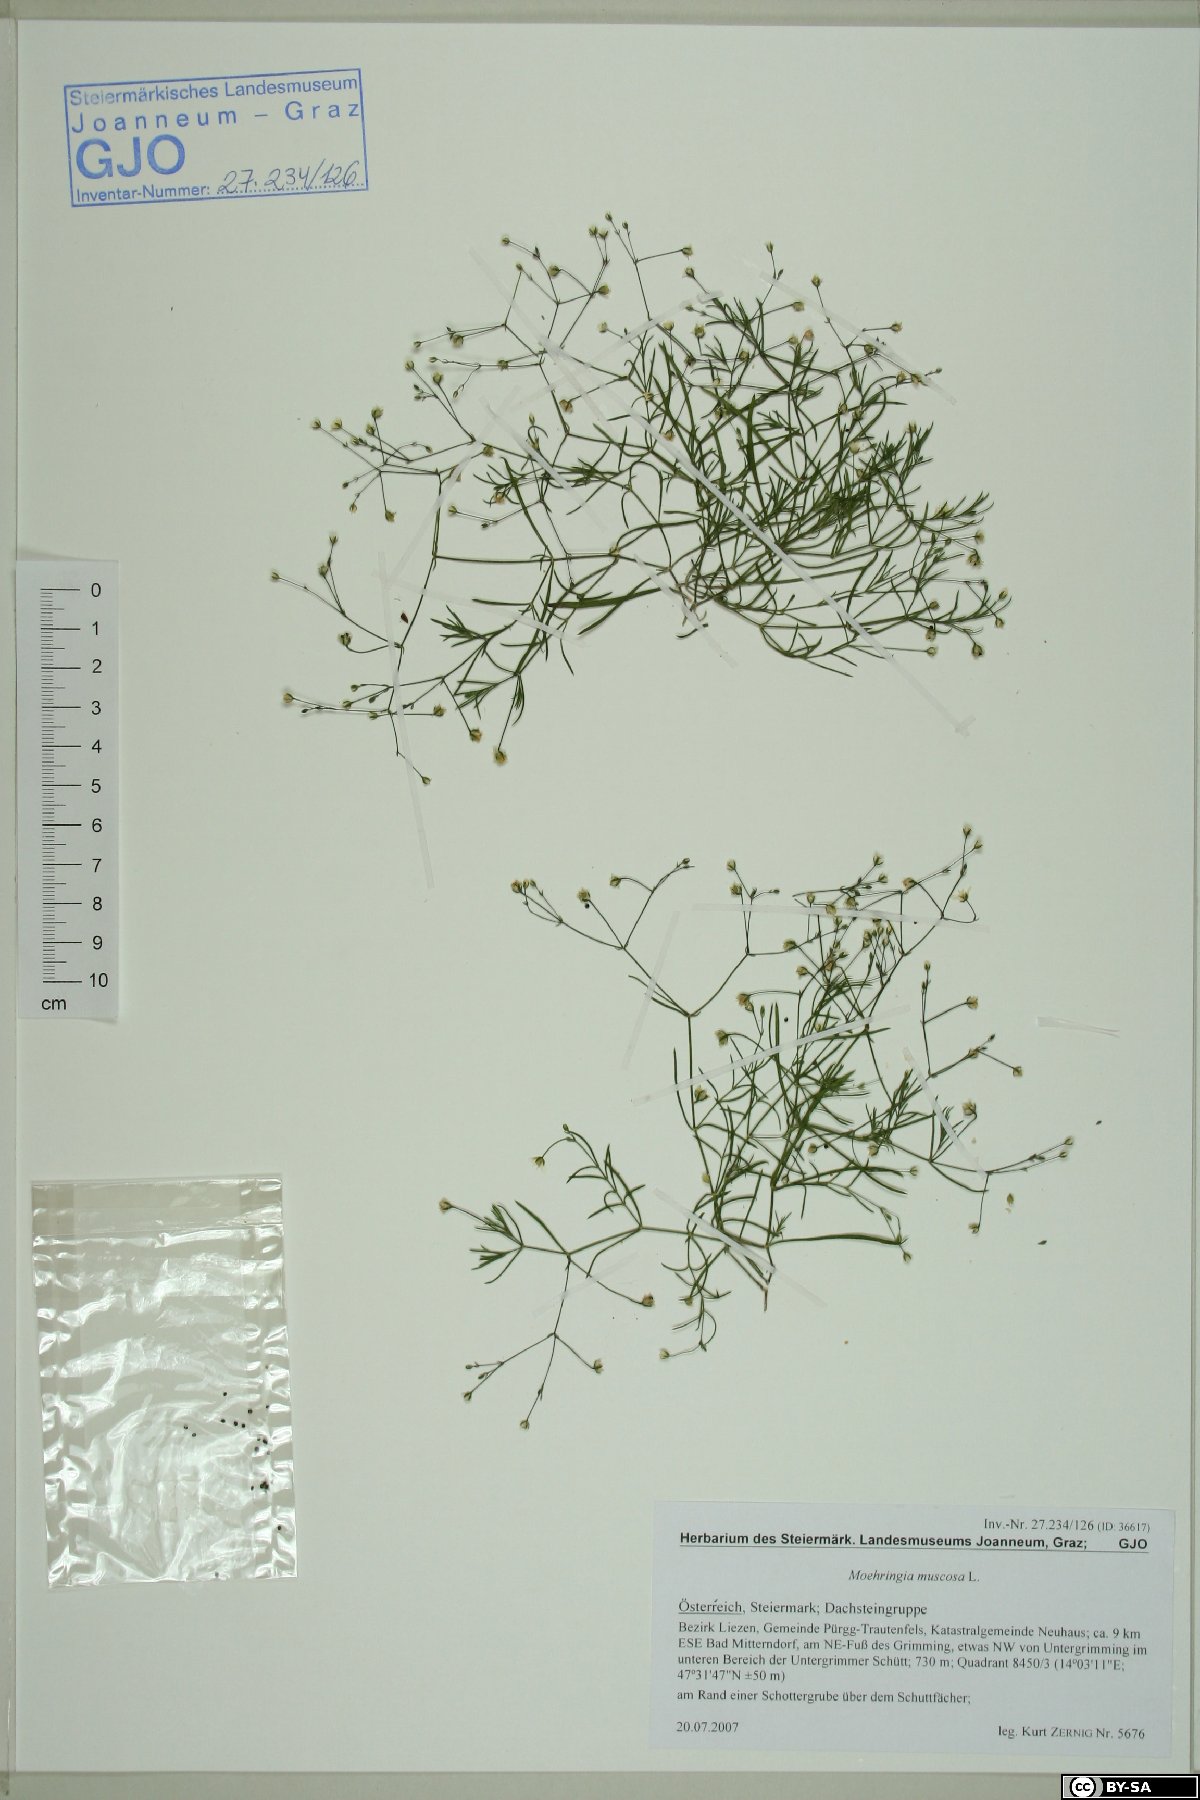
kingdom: Plantae
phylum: Tracheophyta
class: Magnoliopsida
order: Caryophyllales
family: Caryophyllaceae
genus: Moehringia
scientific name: Moehringia muscosa
